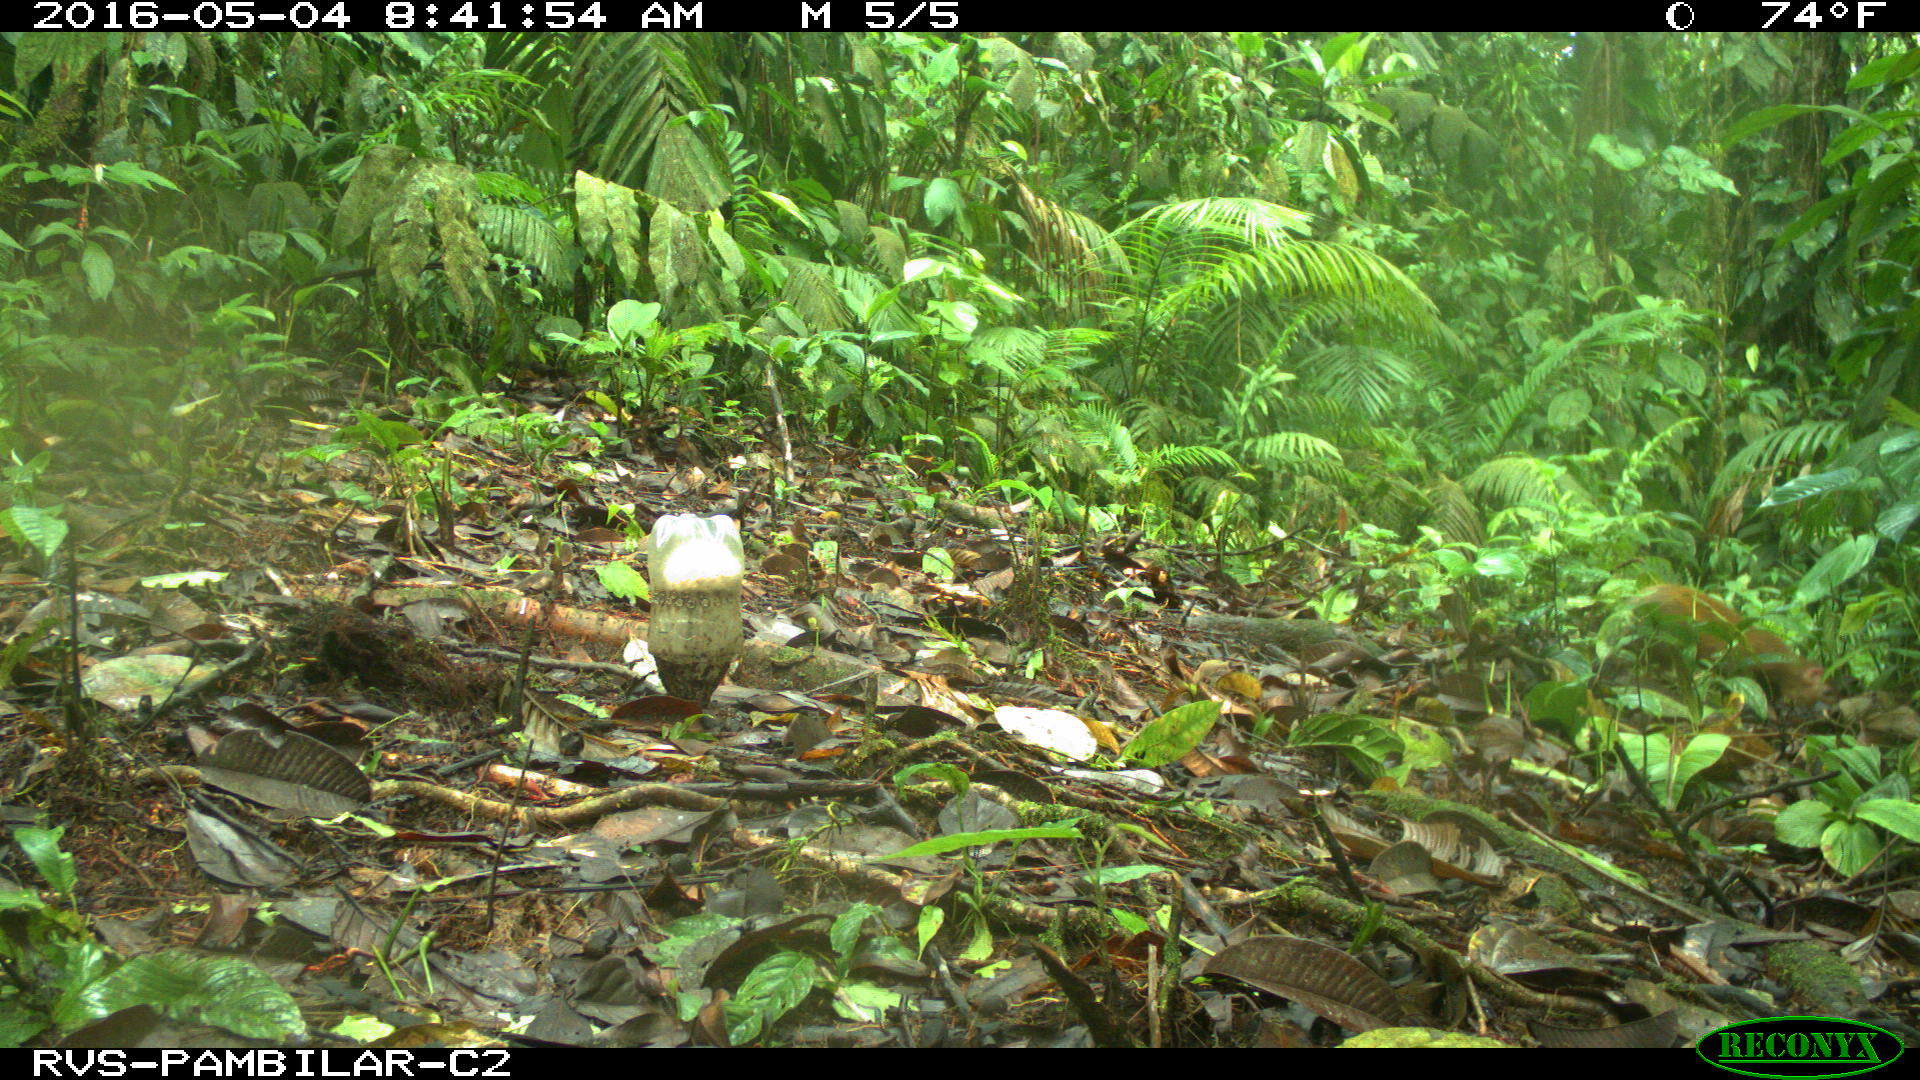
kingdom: Animalia
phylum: Chordata
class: Mammalia
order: Rodentia
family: Dasyproctidae
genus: Dasyprocta
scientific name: Dasyprocta punctata
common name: Central american agouti
